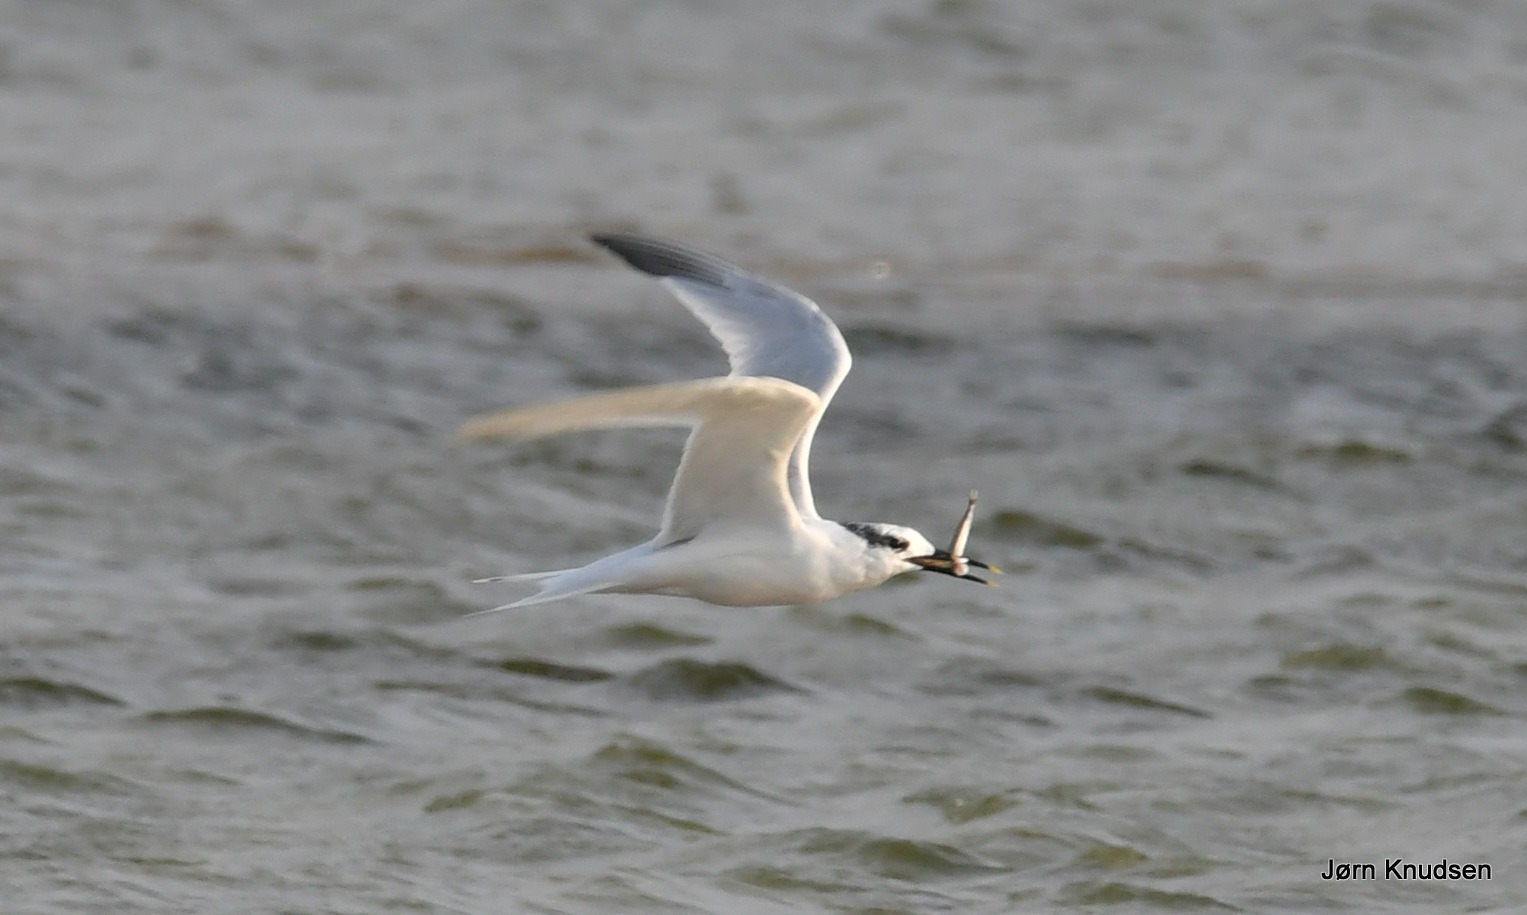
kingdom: Animalia
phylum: Chordata
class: Aves
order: Charadriiformes
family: Laridae
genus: Thalasseus
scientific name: Thalasseus sandvicensis
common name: Splitterne
